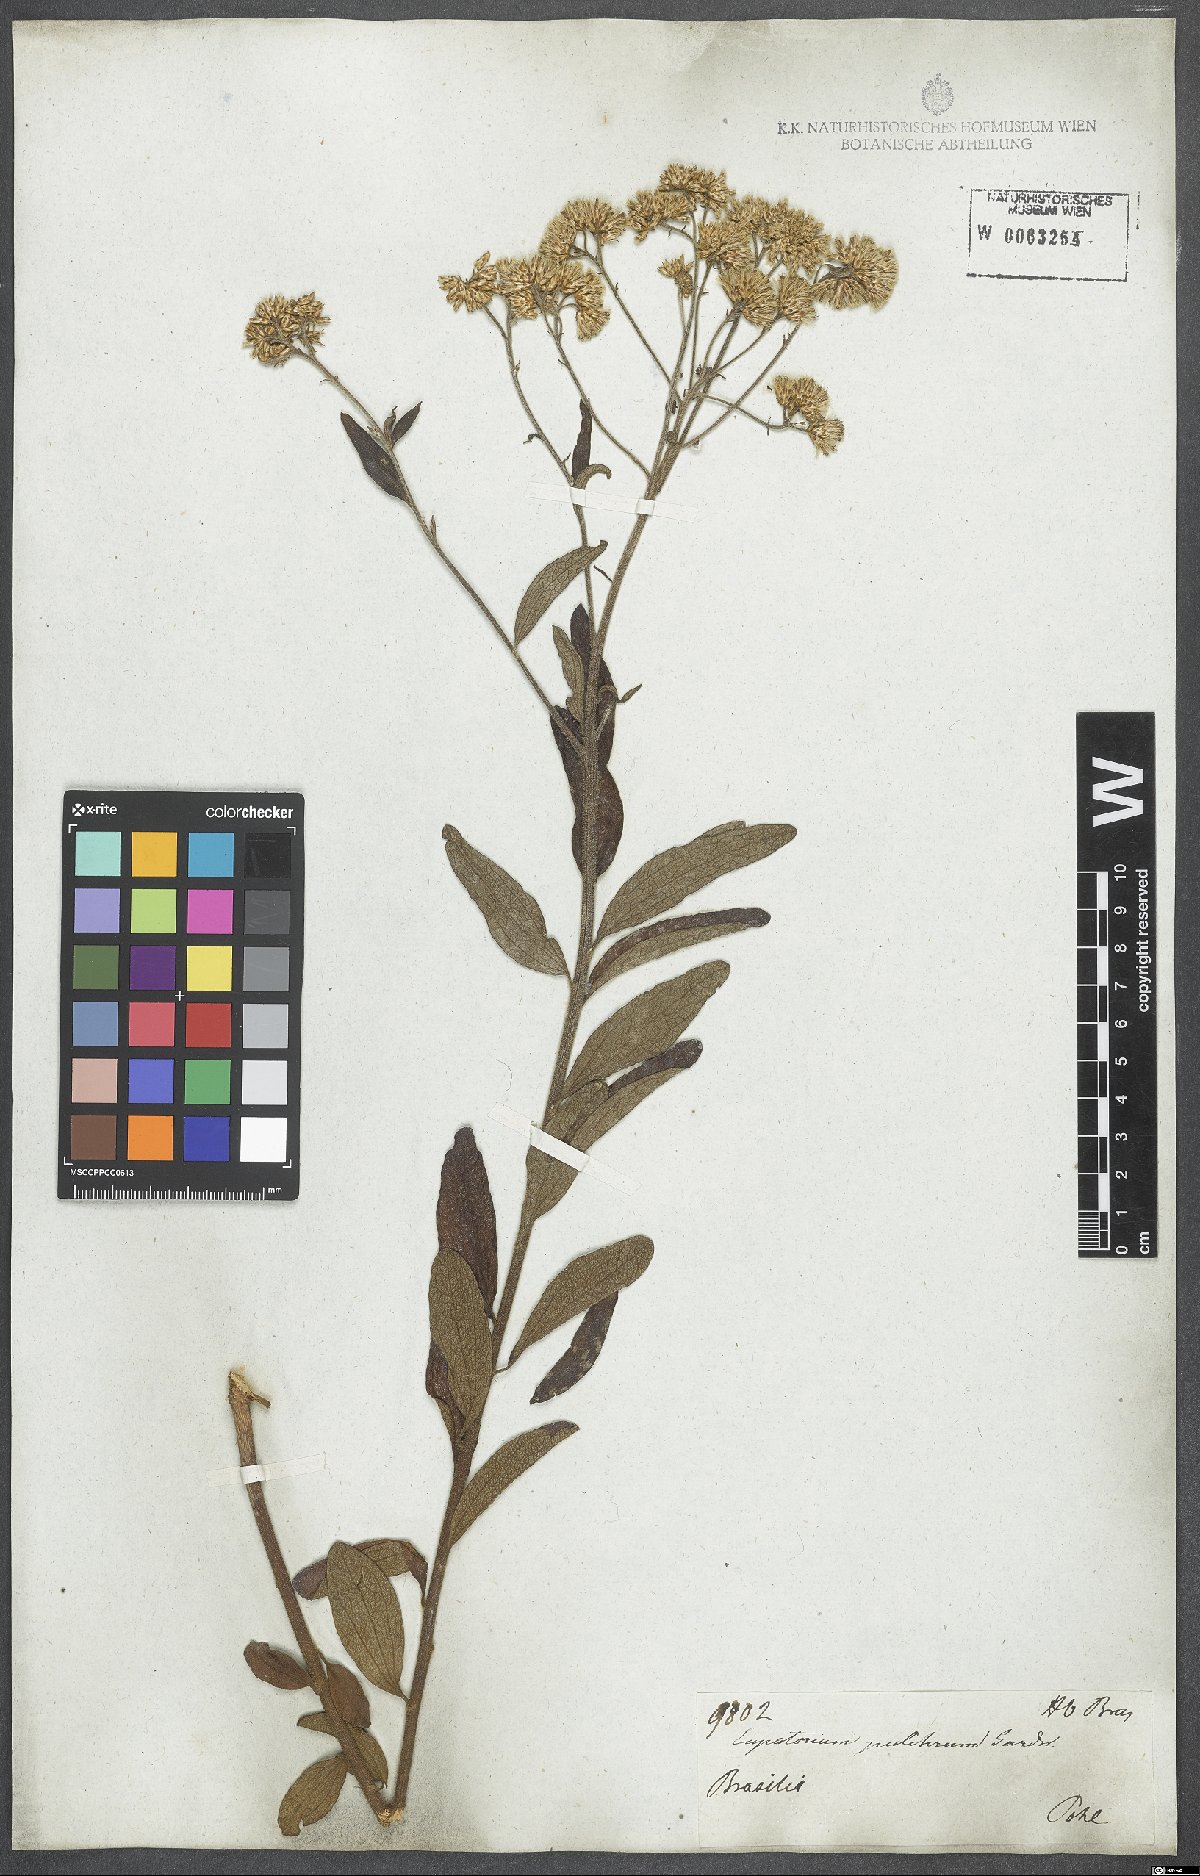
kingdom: Plantae
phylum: Tracheophyta
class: Magnoliopsida
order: Asterales
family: Asteraceae
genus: Chromolaena
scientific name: Chromolaena stachyophylla
